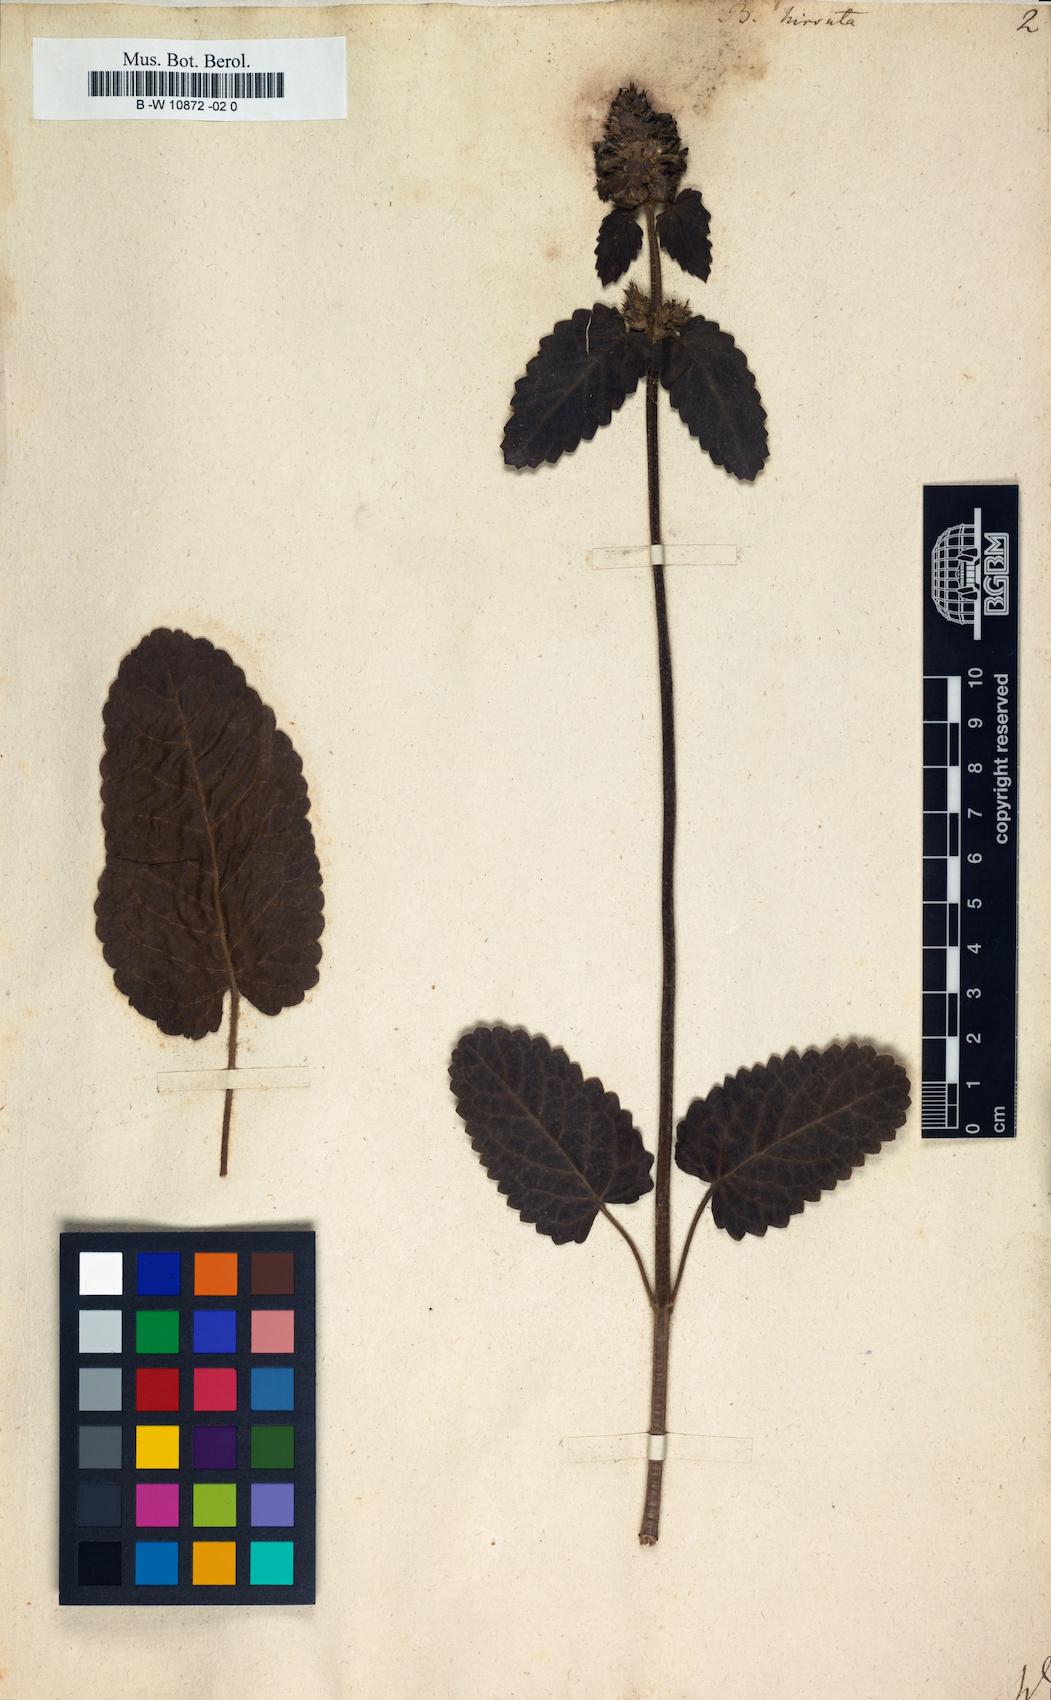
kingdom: Plantae
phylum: Tracheophyta
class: Magnoliopsida
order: Lamiales
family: Lamiaceae
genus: Betonica
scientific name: Betonica hirsuta
